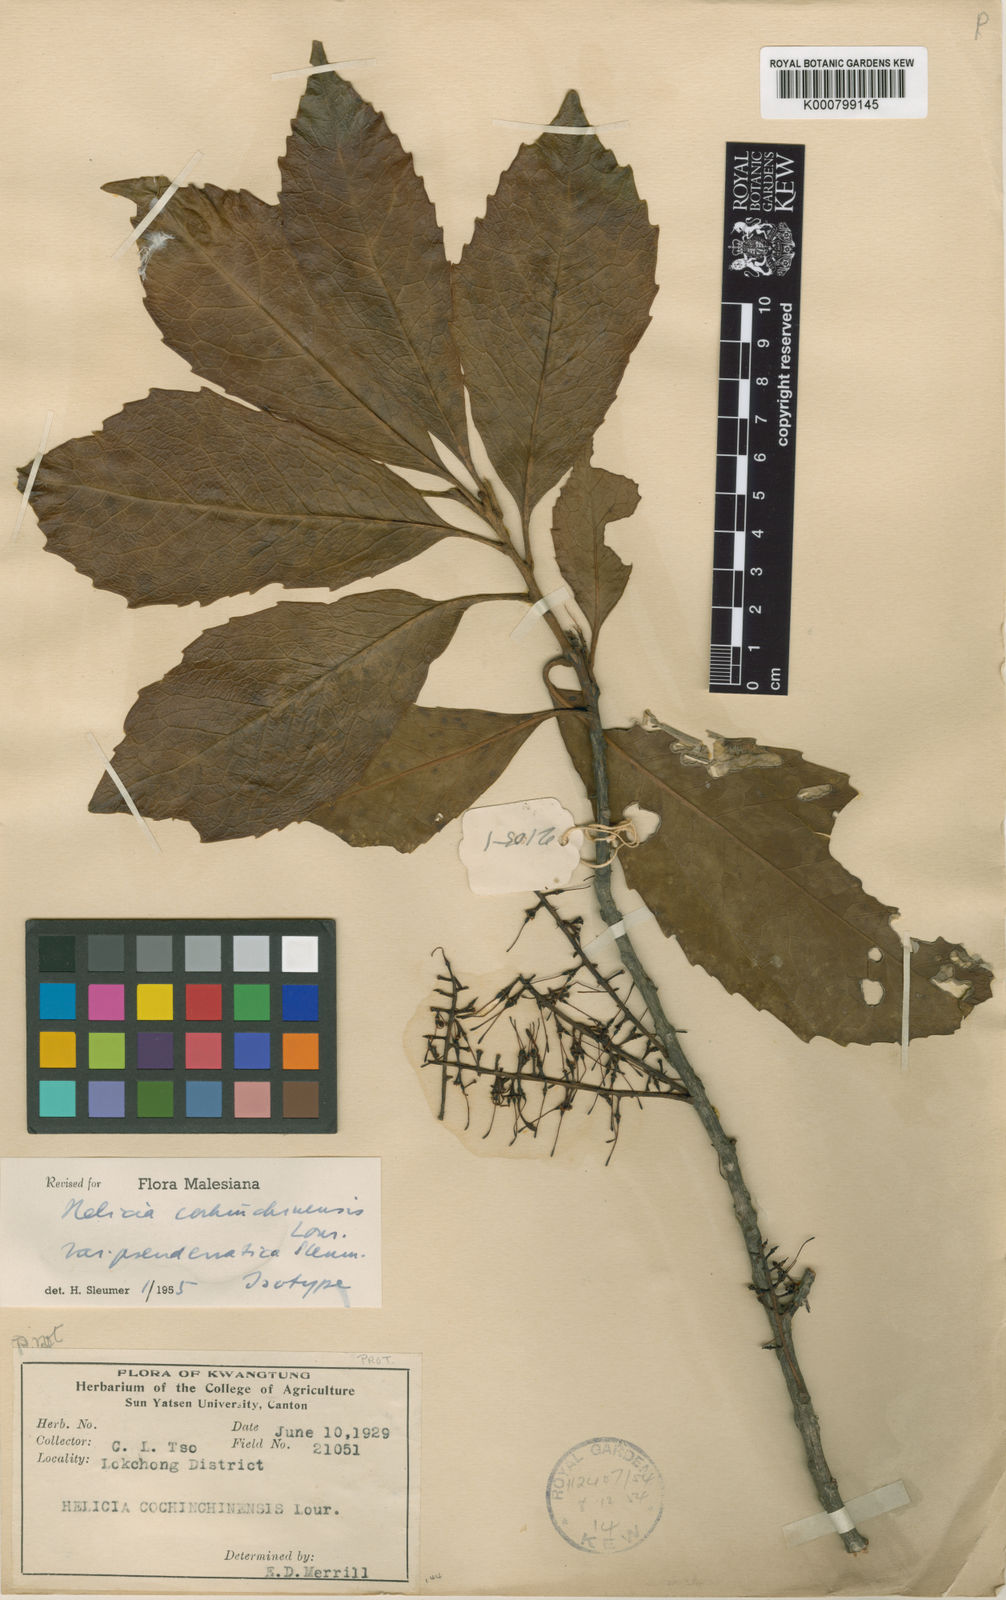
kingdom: Plantae
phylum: Tracheophyta
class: Magnoliopsida
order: Proteales
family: Proteaceae
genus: Helicia
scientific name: Helicia cochinchinensis
